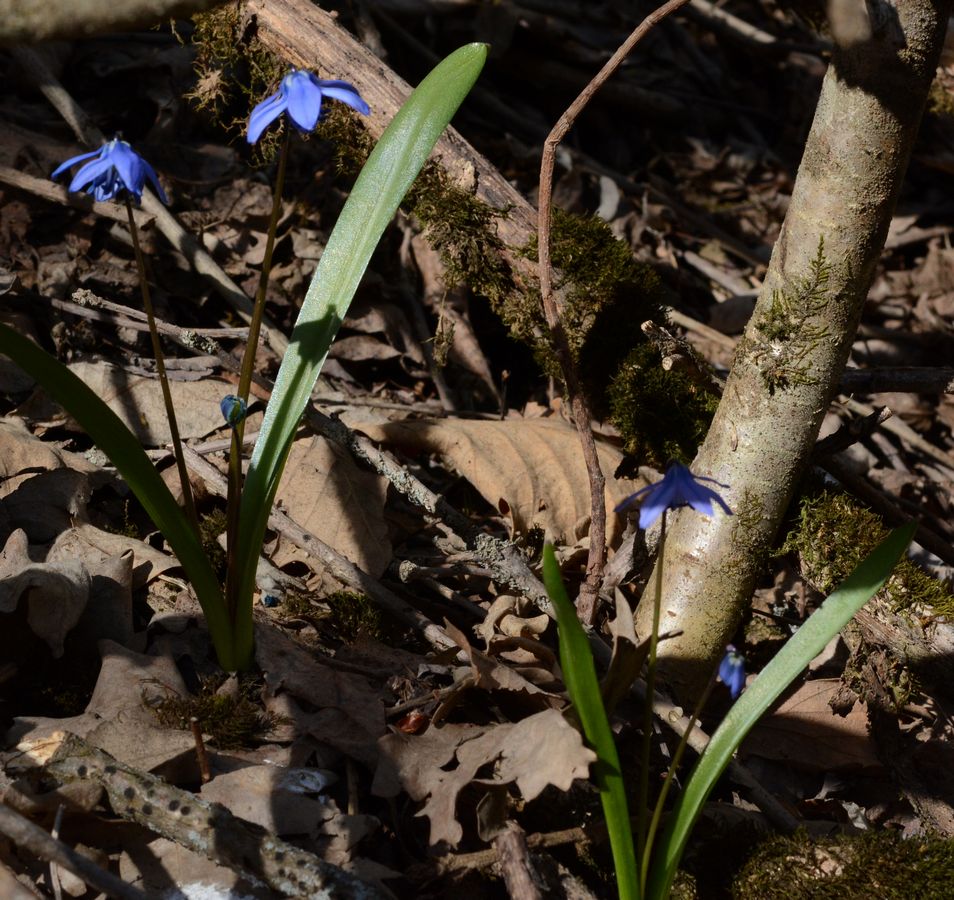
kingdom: Plantae
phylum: Tracheophyta
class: Liliopsida
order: Asparagales
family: Asparagaceae
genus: Scilla
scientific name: Scilla siberica
